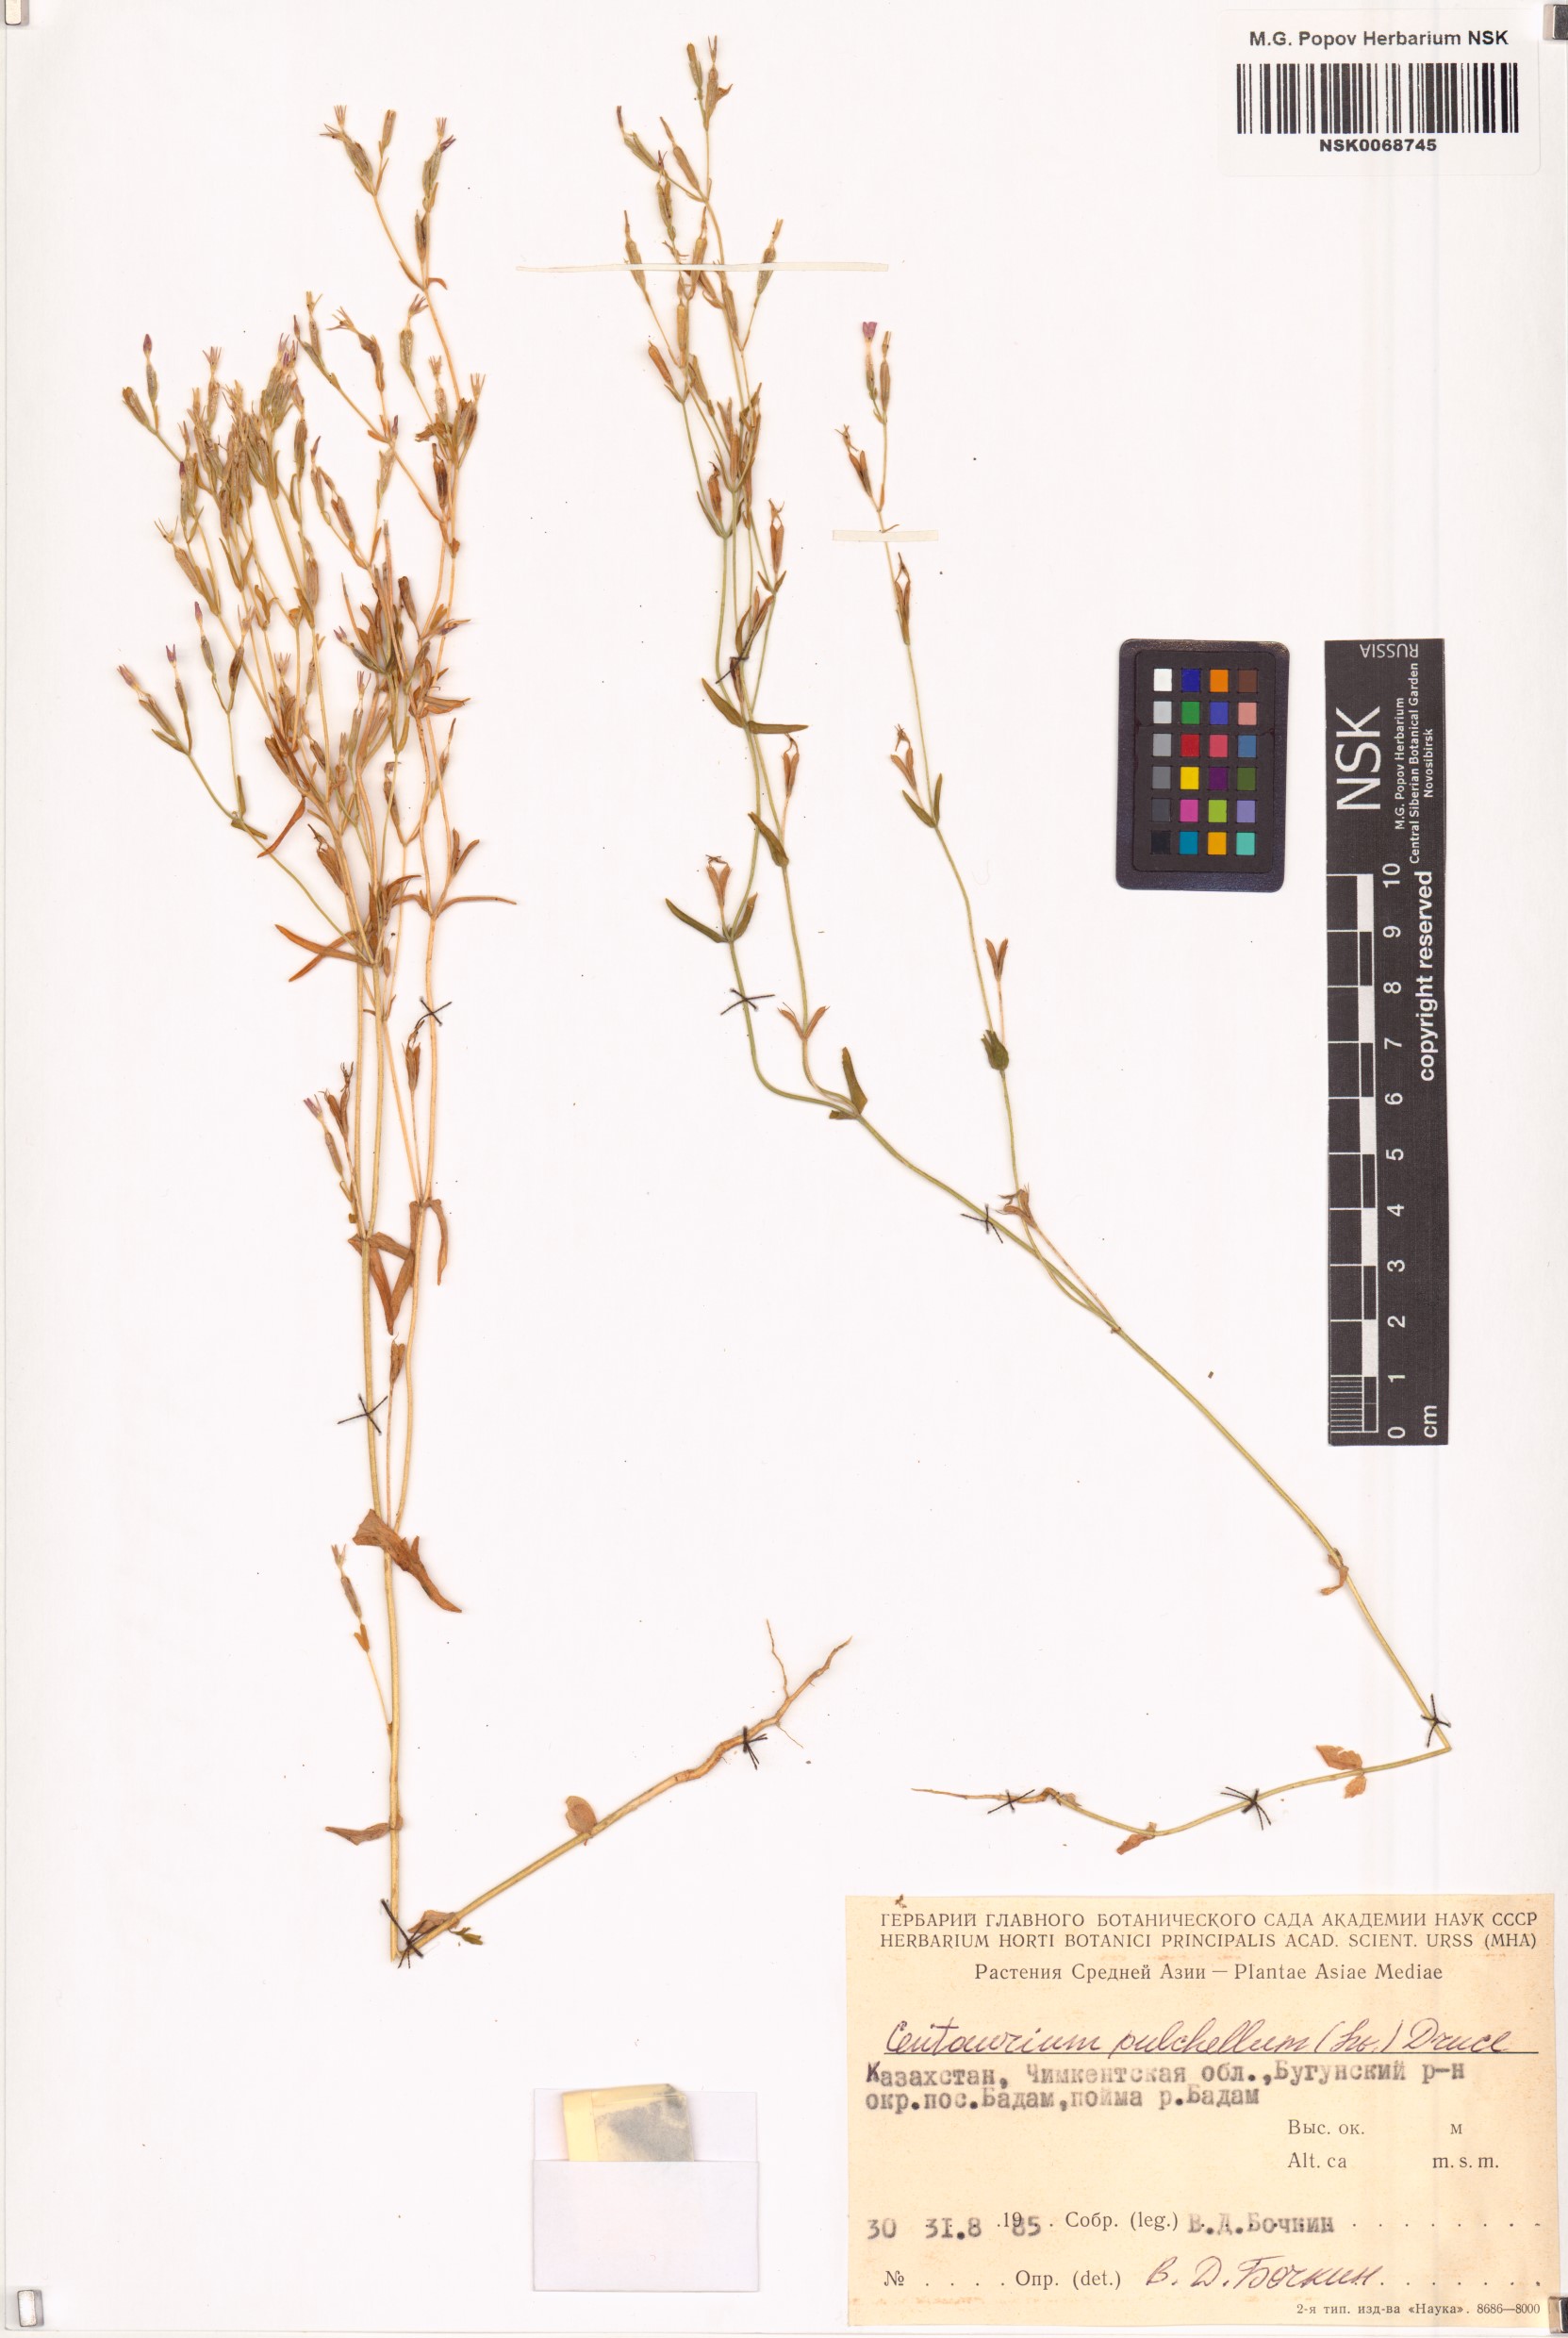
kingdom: Plantae
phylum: Tracheophyta
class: Magnoliopsida
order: Gentianales
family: Gentianaceae
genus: Centaurium
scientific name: Centaurium pulchellum
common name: Lesser centaury
